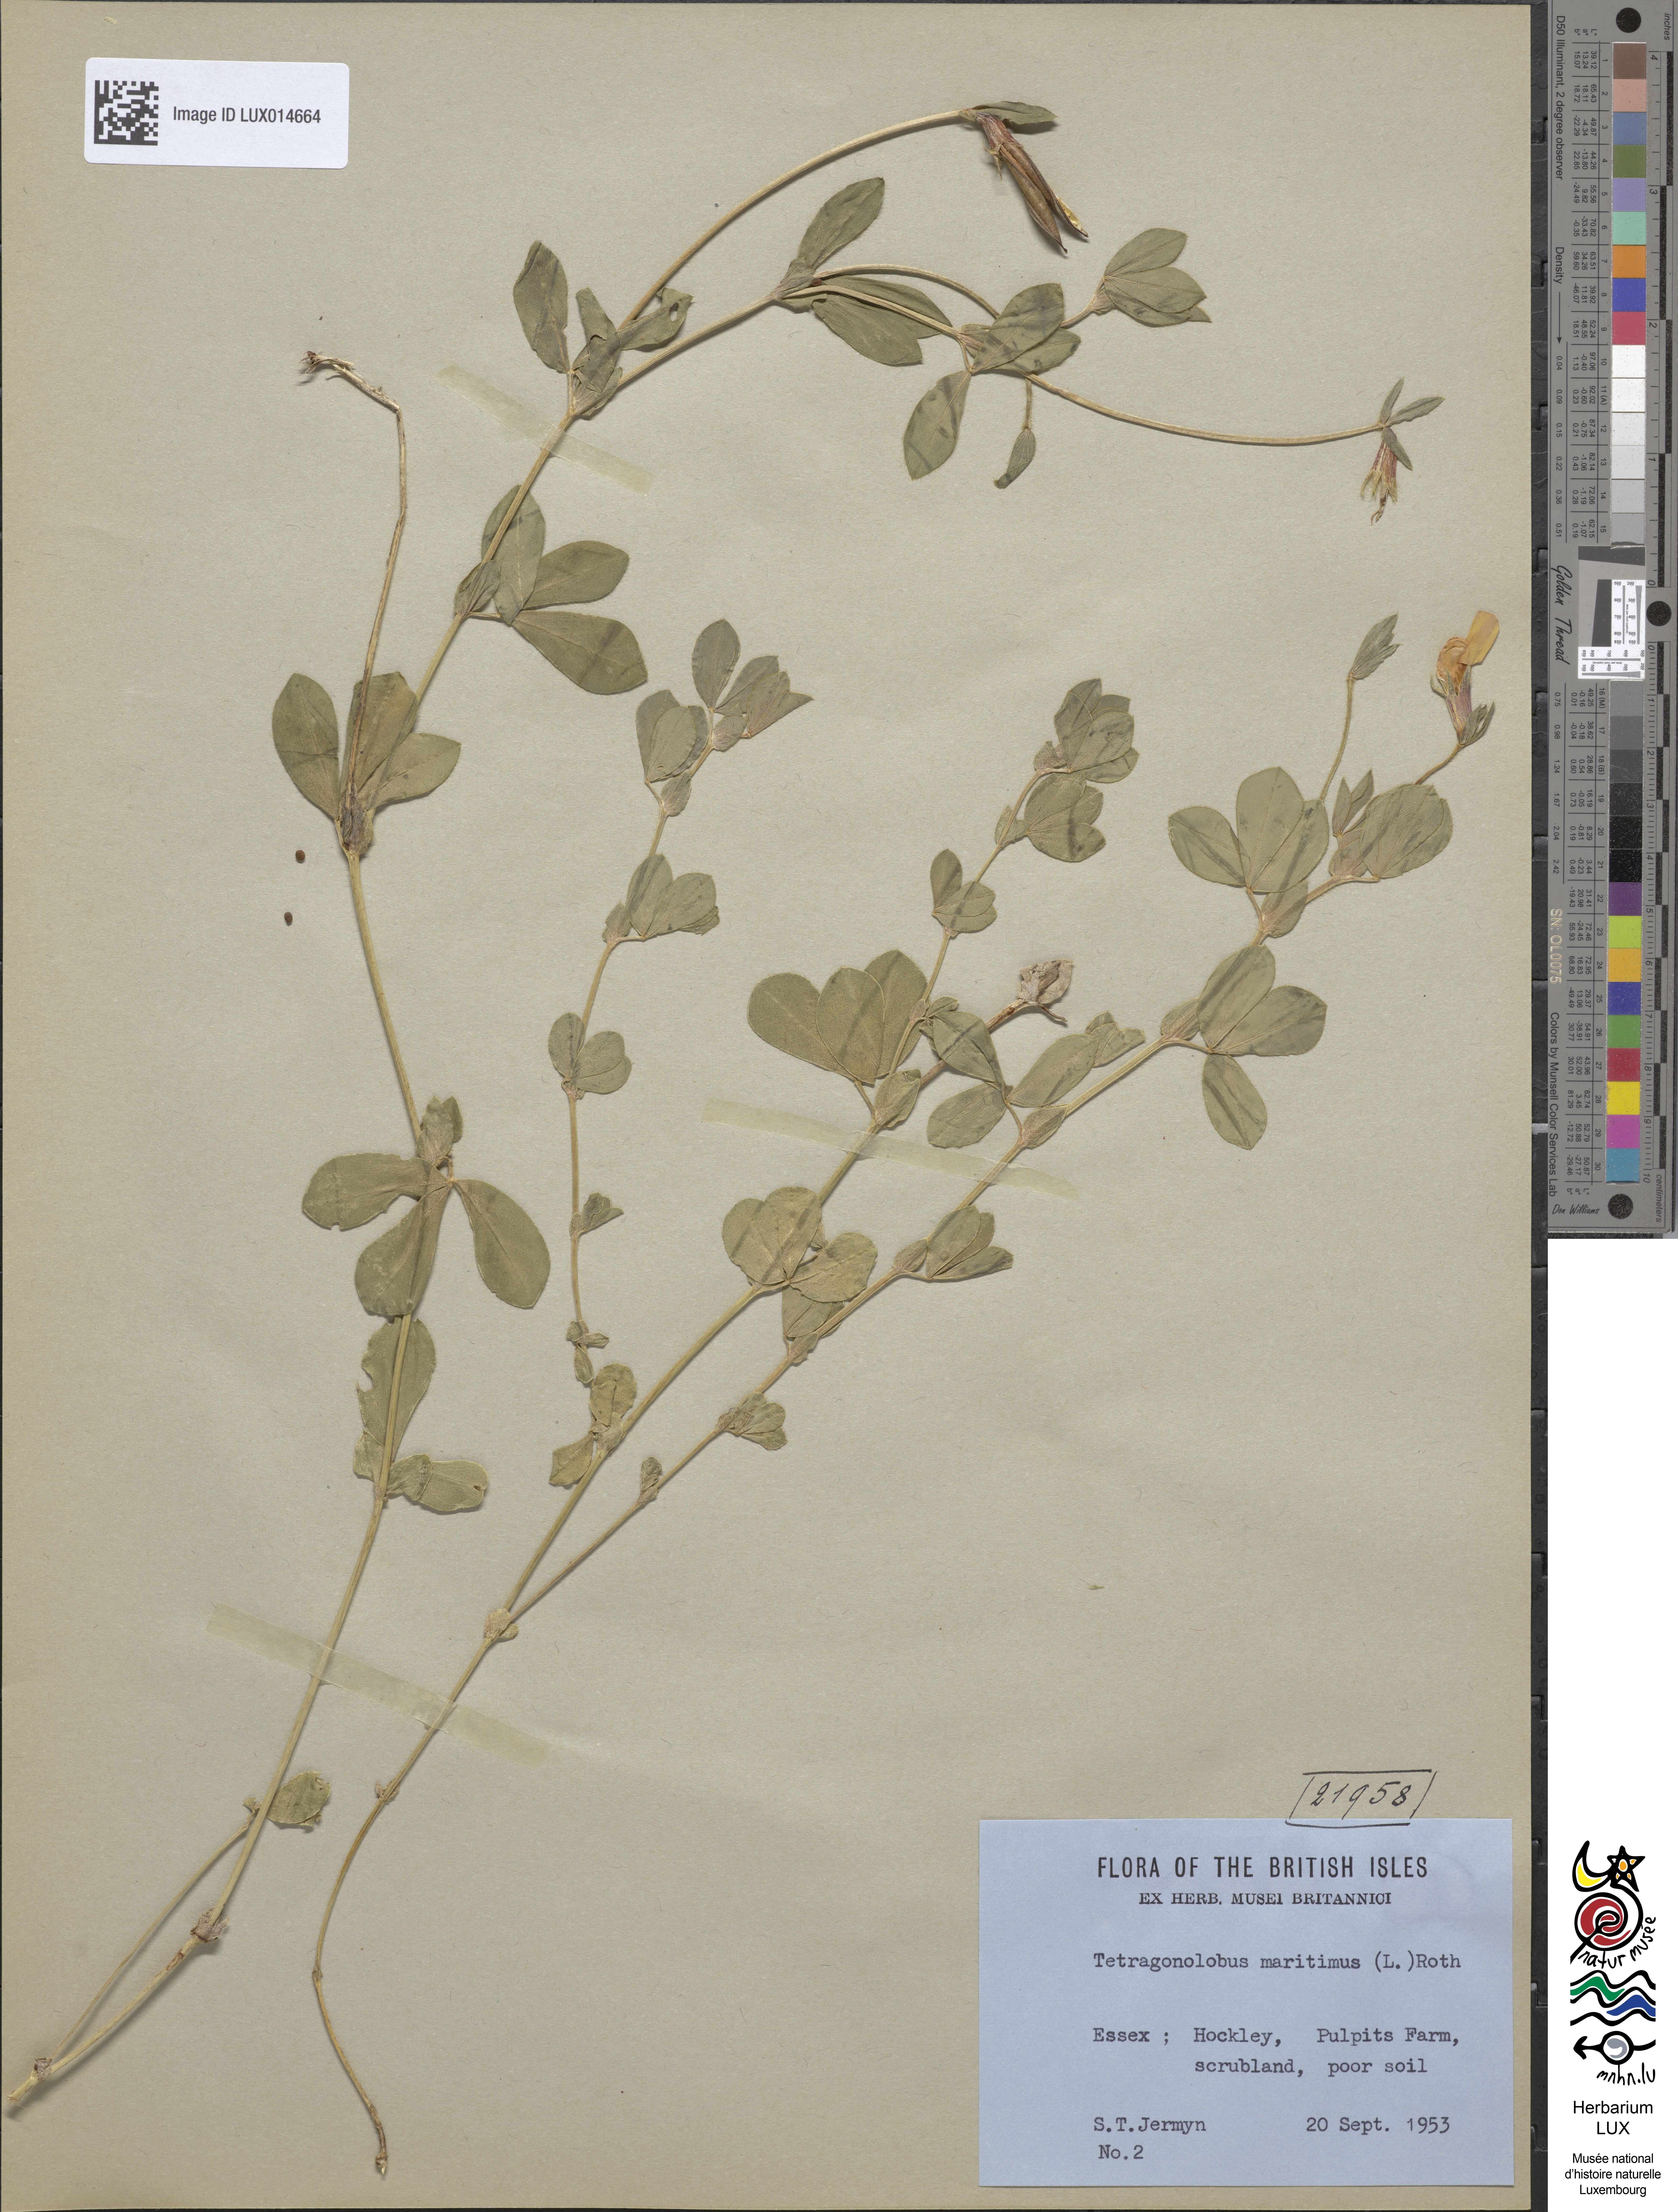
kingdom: Plantae
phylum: Tracheophyta
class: Magnoliopsida
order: Fabales
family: Fabaceae
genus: Lotus
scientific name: Lotus maritimus
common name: Dragon's-teeth
